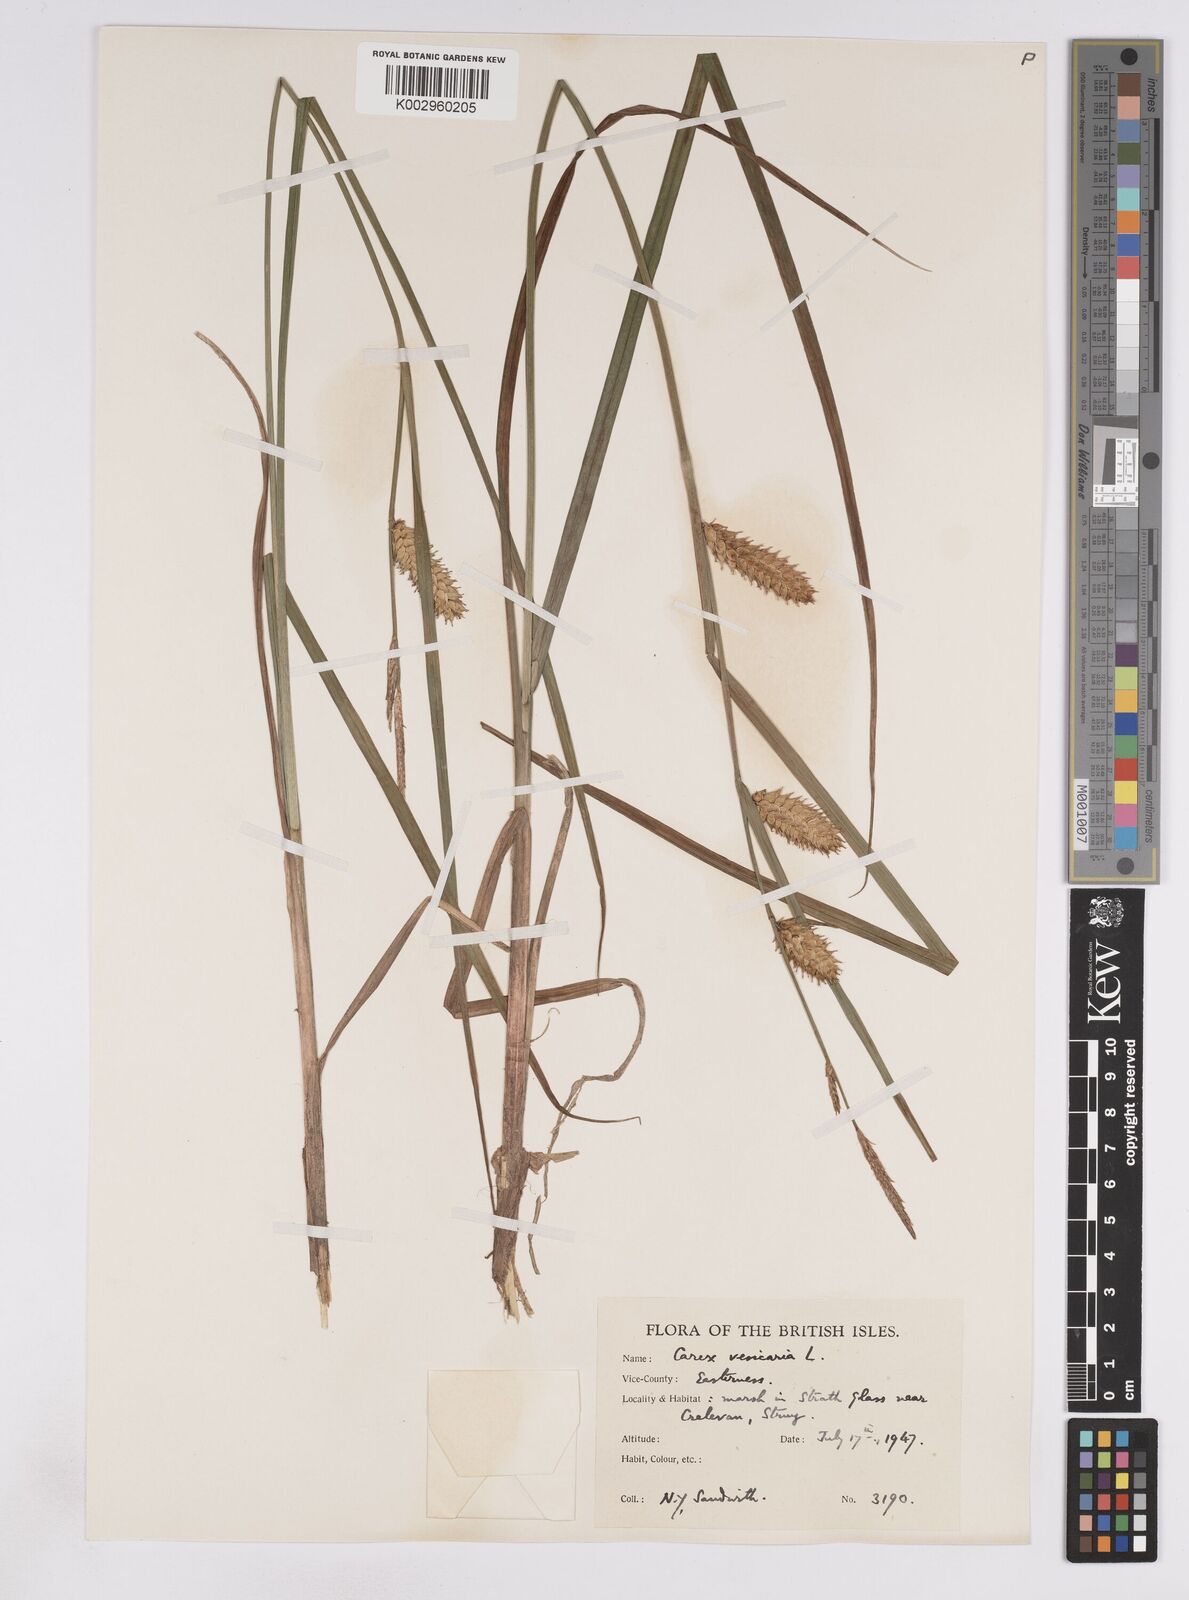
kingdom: Plantae
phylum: Tracheophyta
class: Liliopsida
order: Poales
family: Cyperaceae
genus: Carex
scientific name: Carex vesicaria
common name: Bladder-sedge
